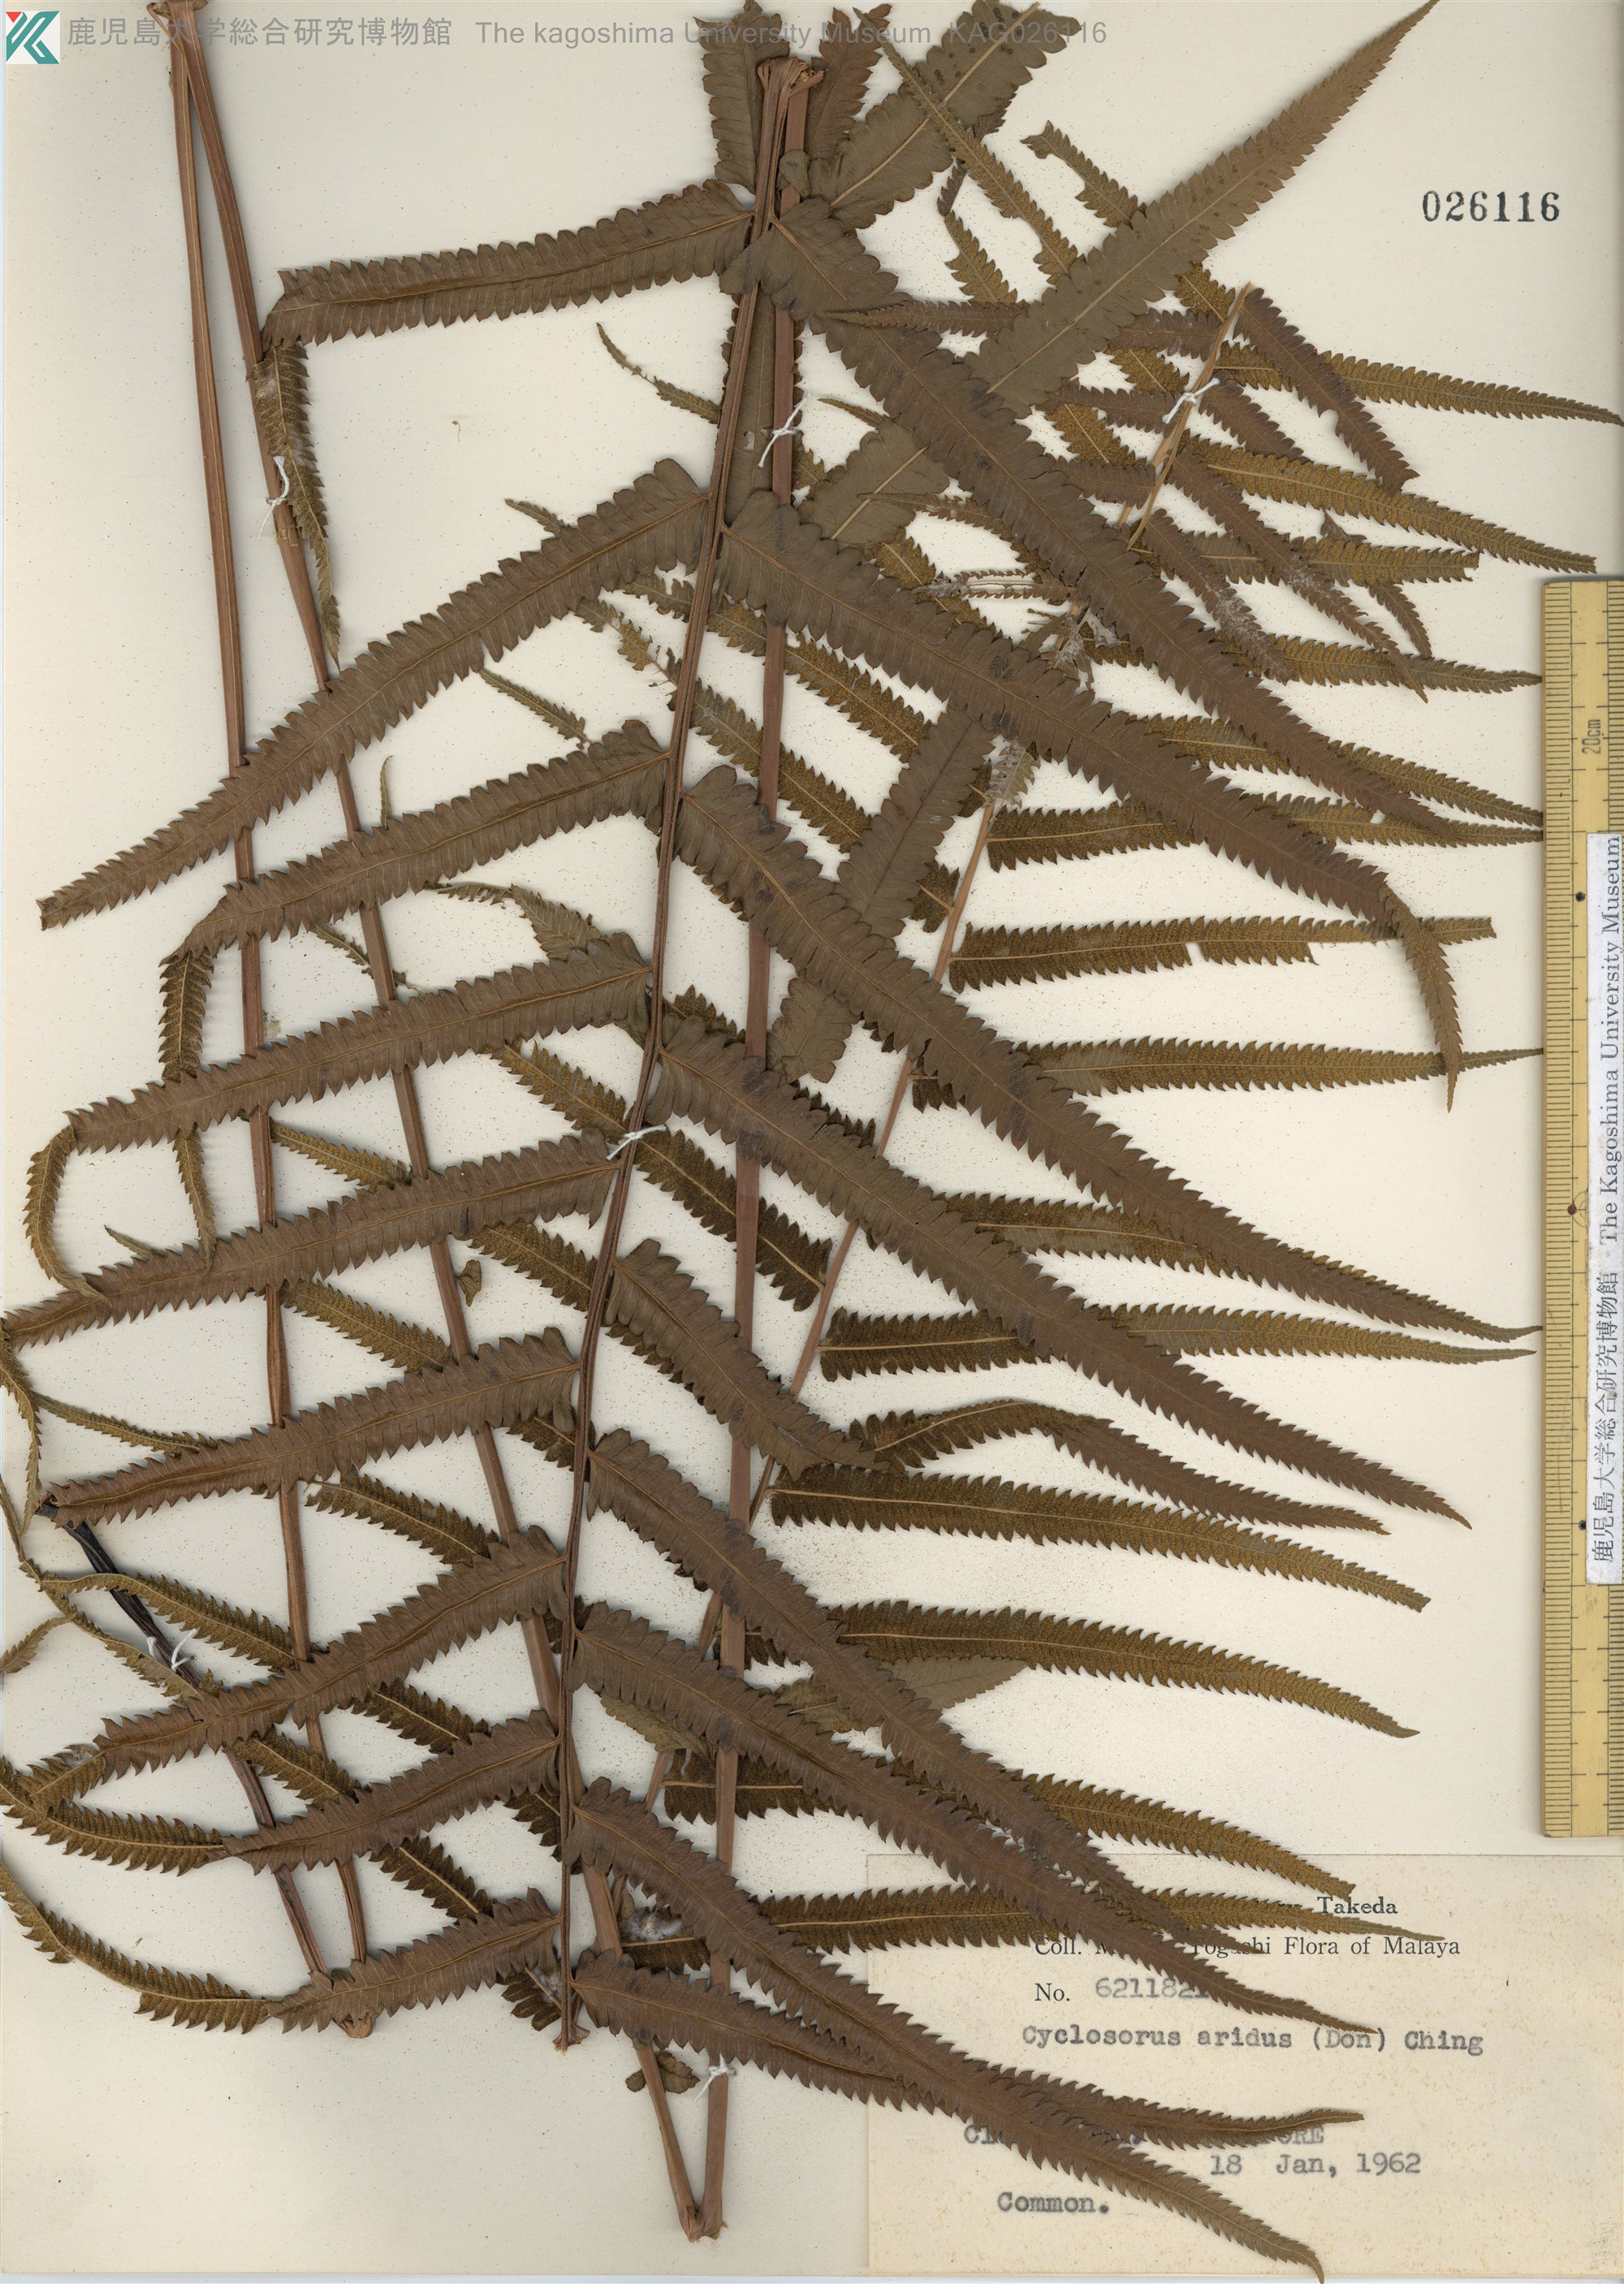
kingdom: Plantae
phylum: Tracheophyta
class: Polypodiopsida
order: Polypodiales
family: Thelypteridaceae
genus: Christella
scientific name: Christella arida
